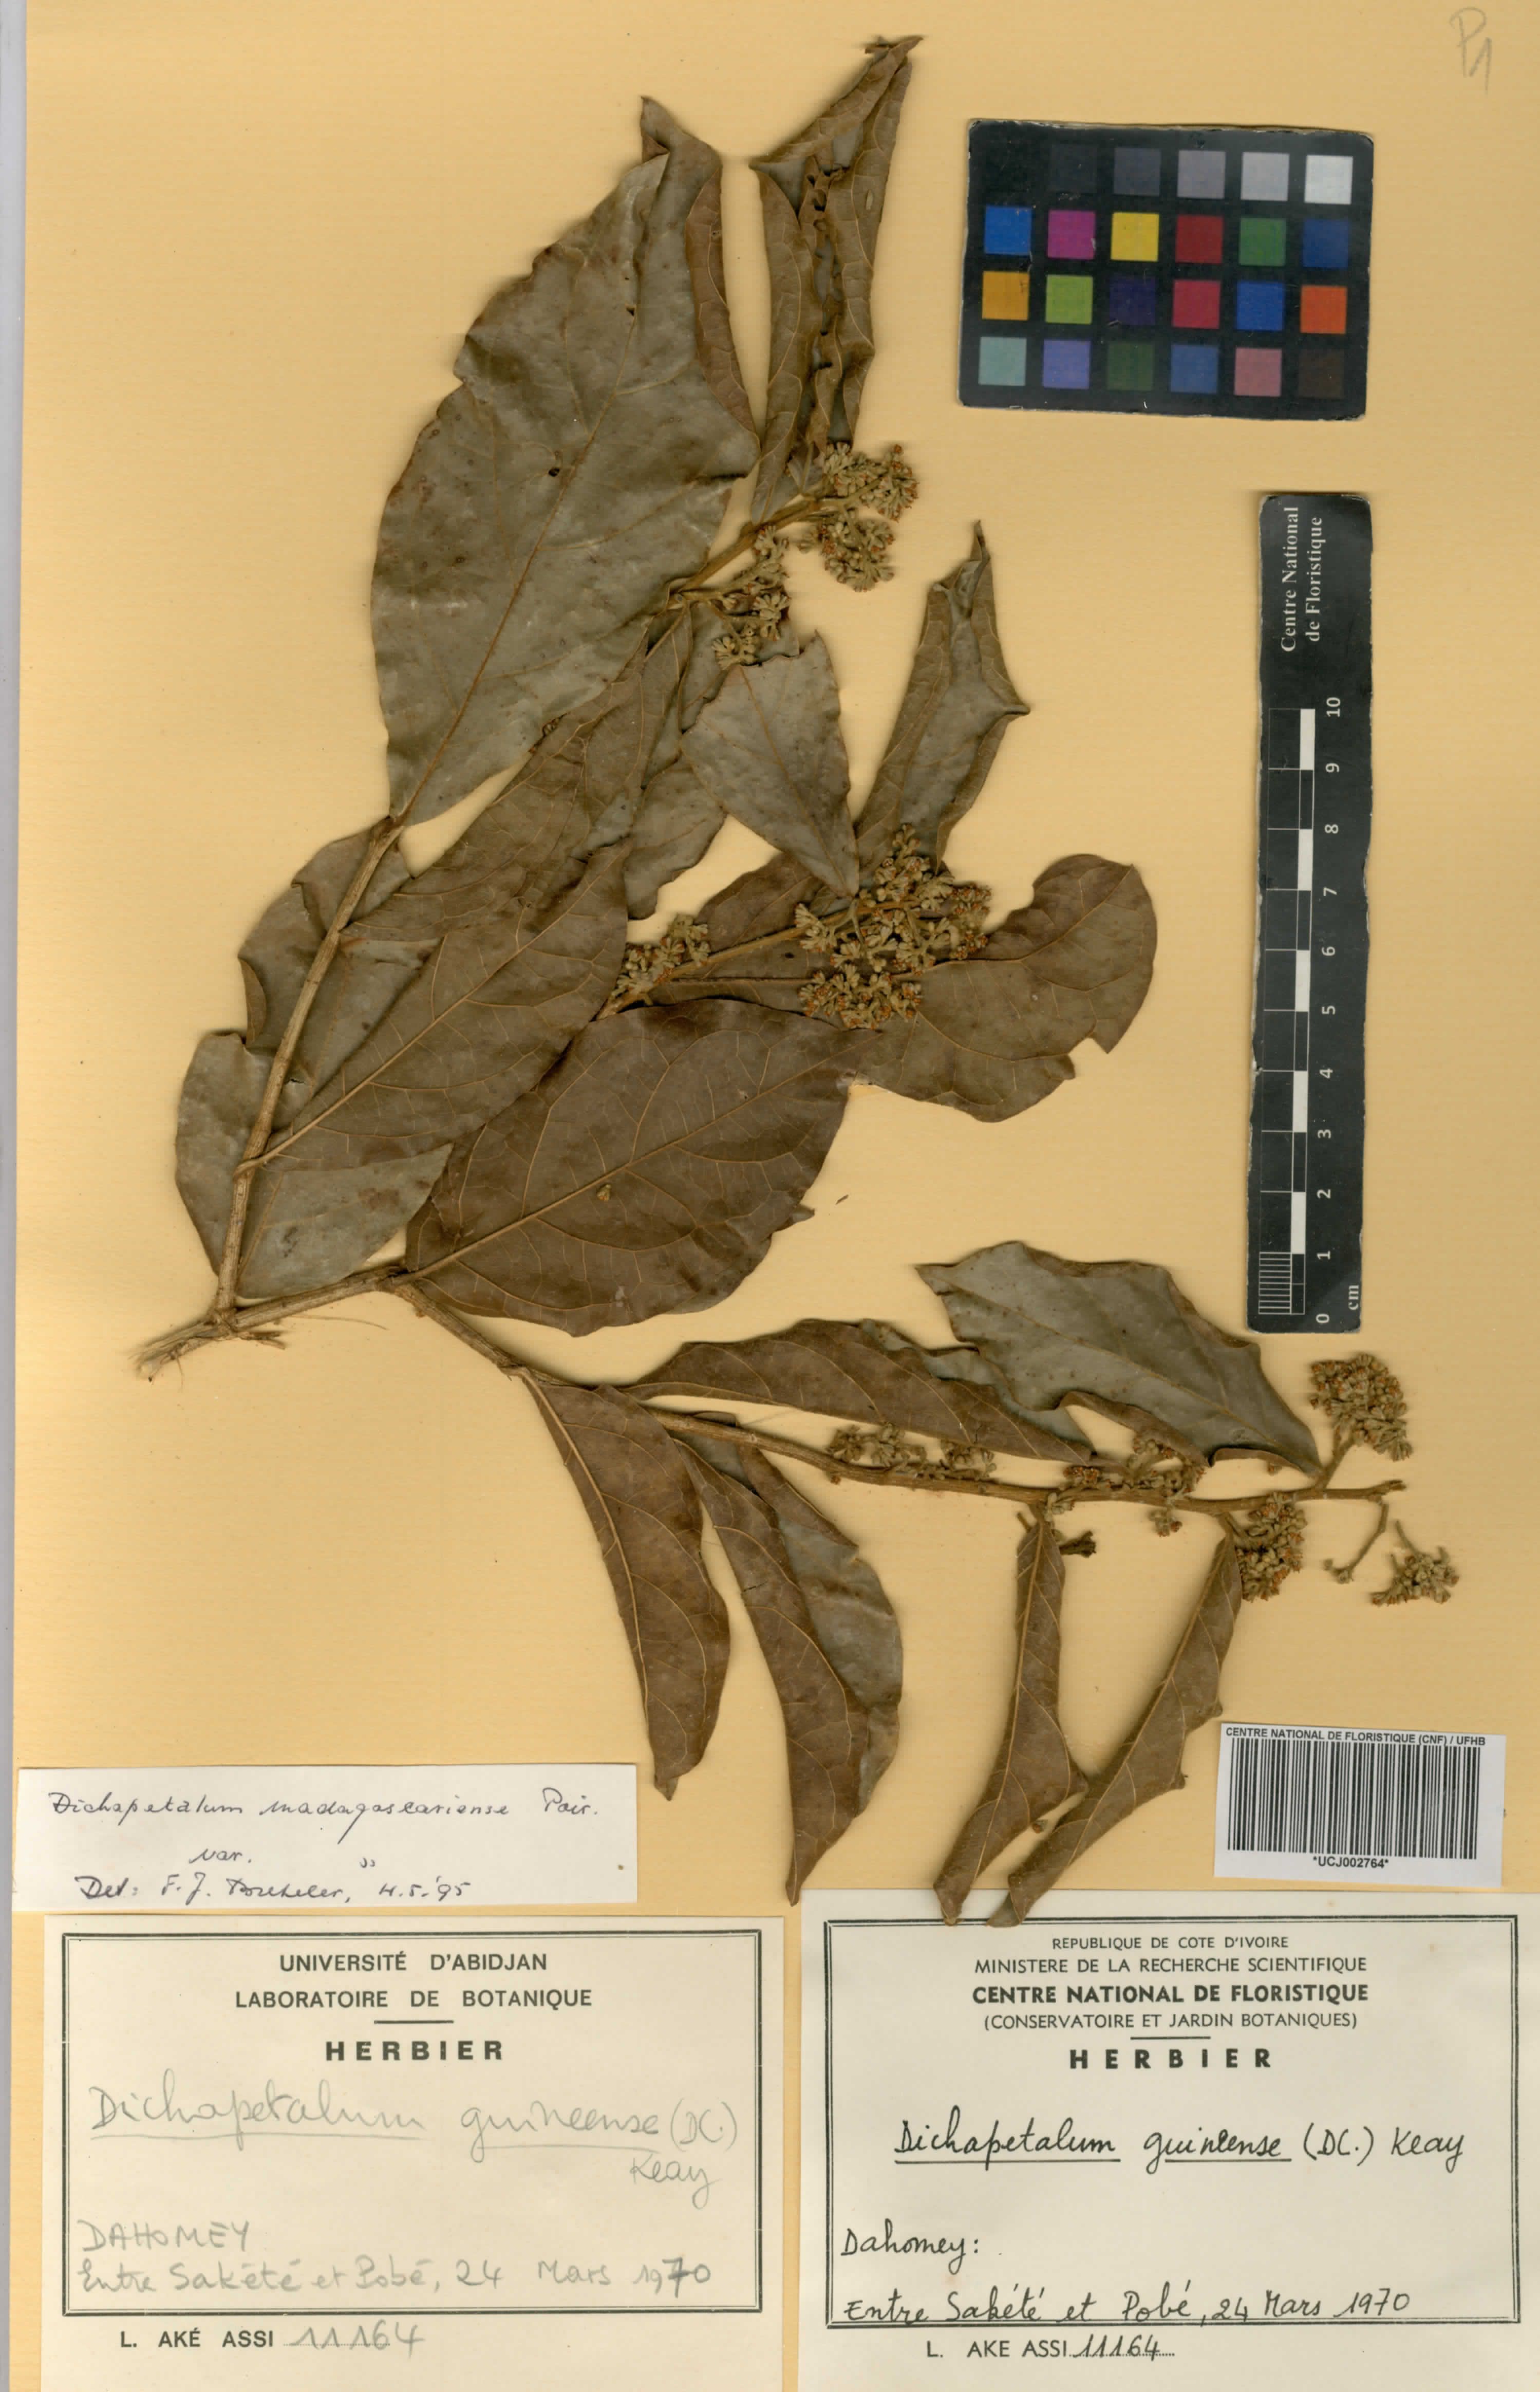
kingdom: Plantae
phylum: Tracheophyta
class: Magnoliopsida
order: Malpighiales
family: Dichapetalaceae
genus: Dichapetalum
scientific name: Dichapetalum madagascariense
